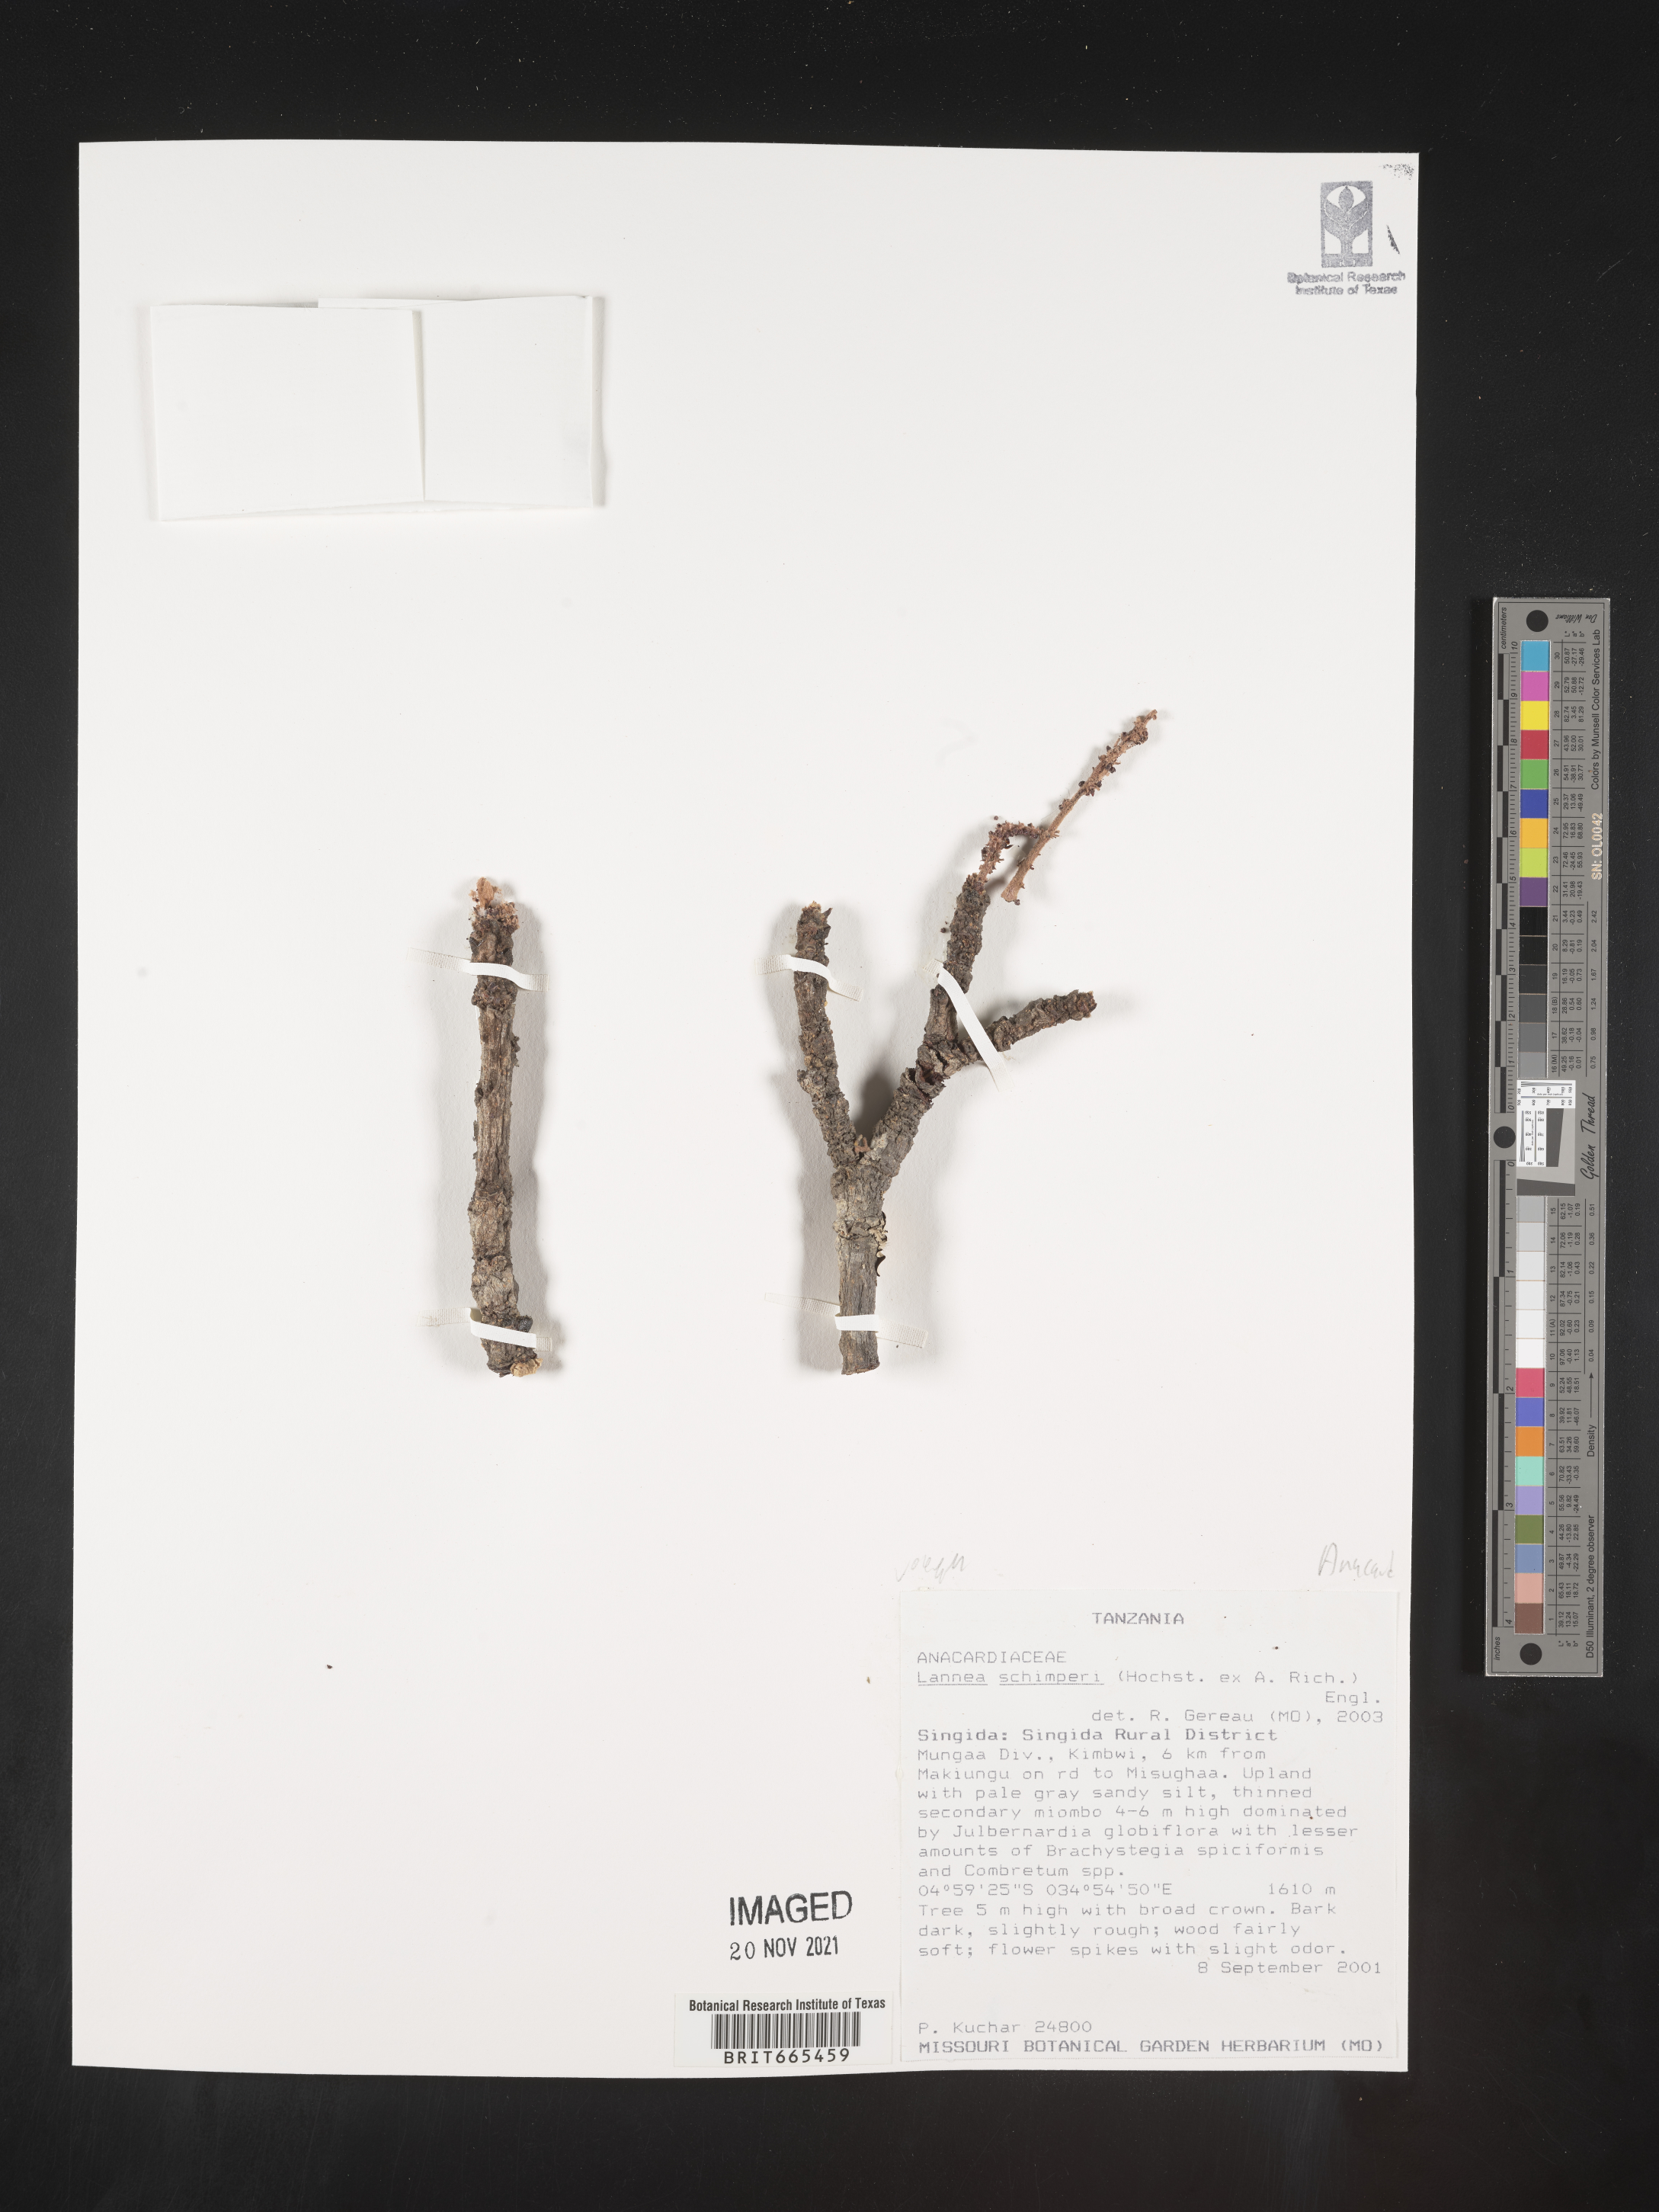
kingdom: Plantae
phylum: Tracheophyta
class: Magnoliopsida
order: Sapindales
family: Anacardiaceae
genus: Lannea
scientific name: Lannea
